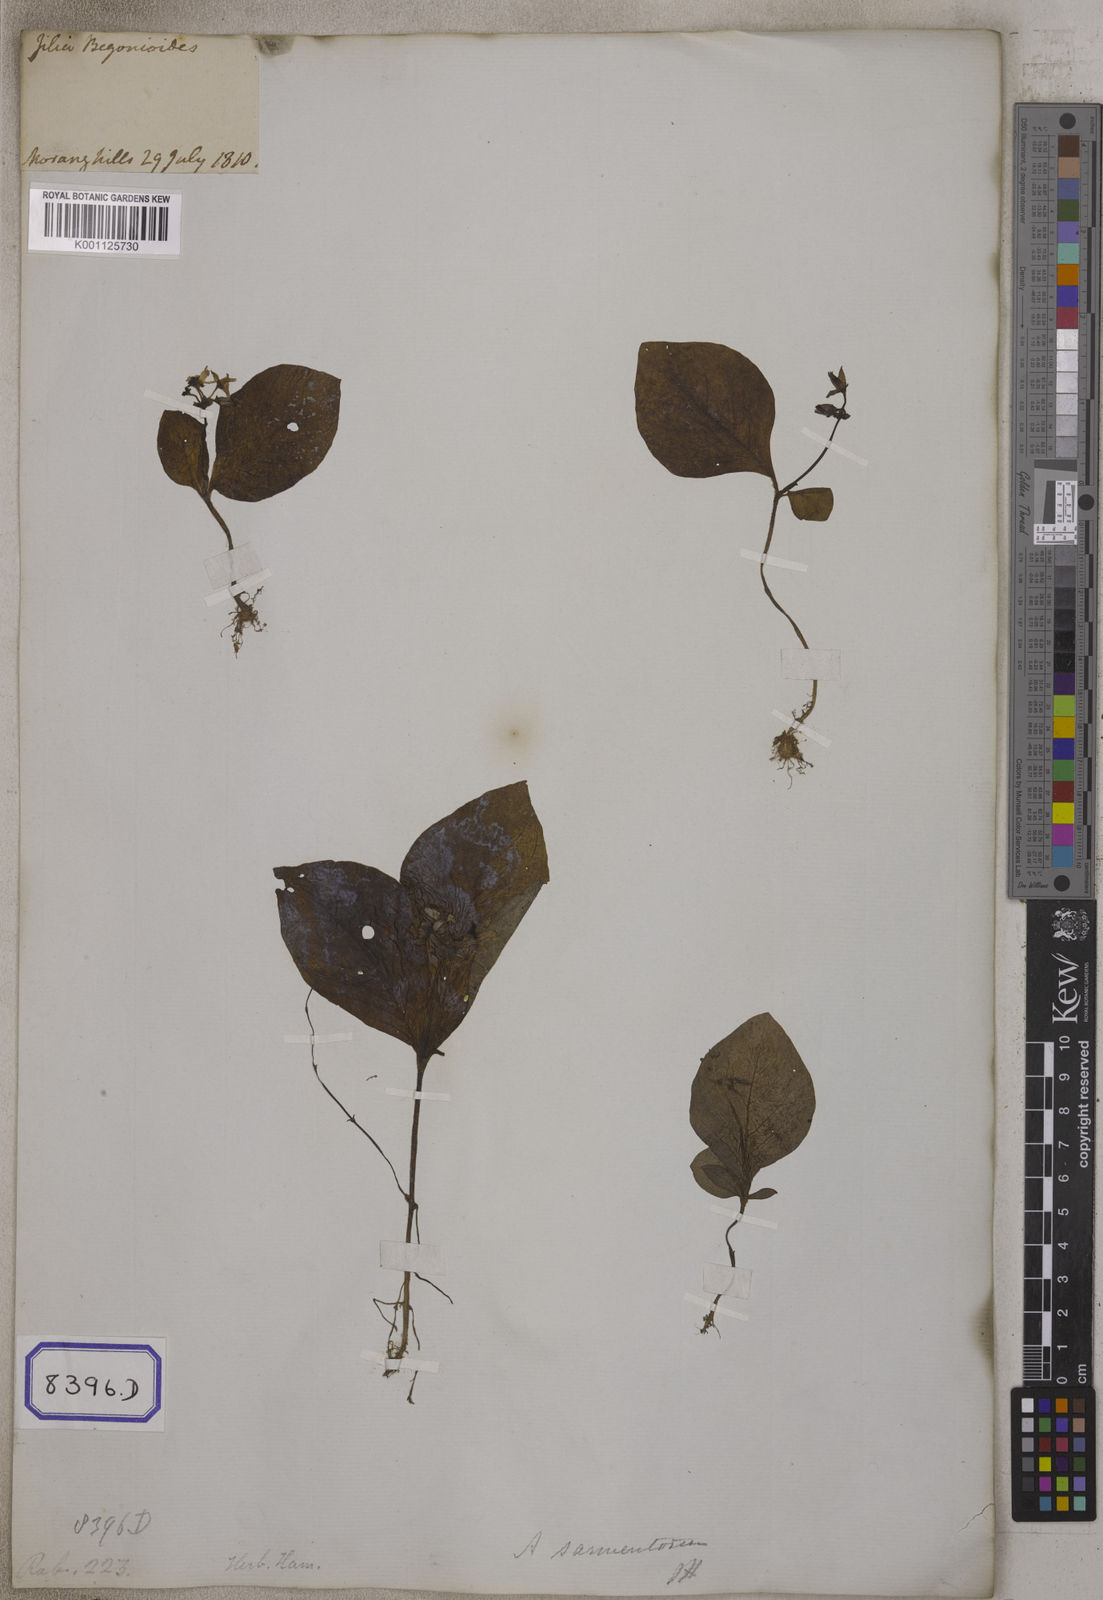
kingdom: Plantae
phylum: Tracheophyta
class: Magnoliopsida
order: Gentianales
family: Rubiaceae
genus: Argostemma
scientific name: Argostemma sarmentosum
